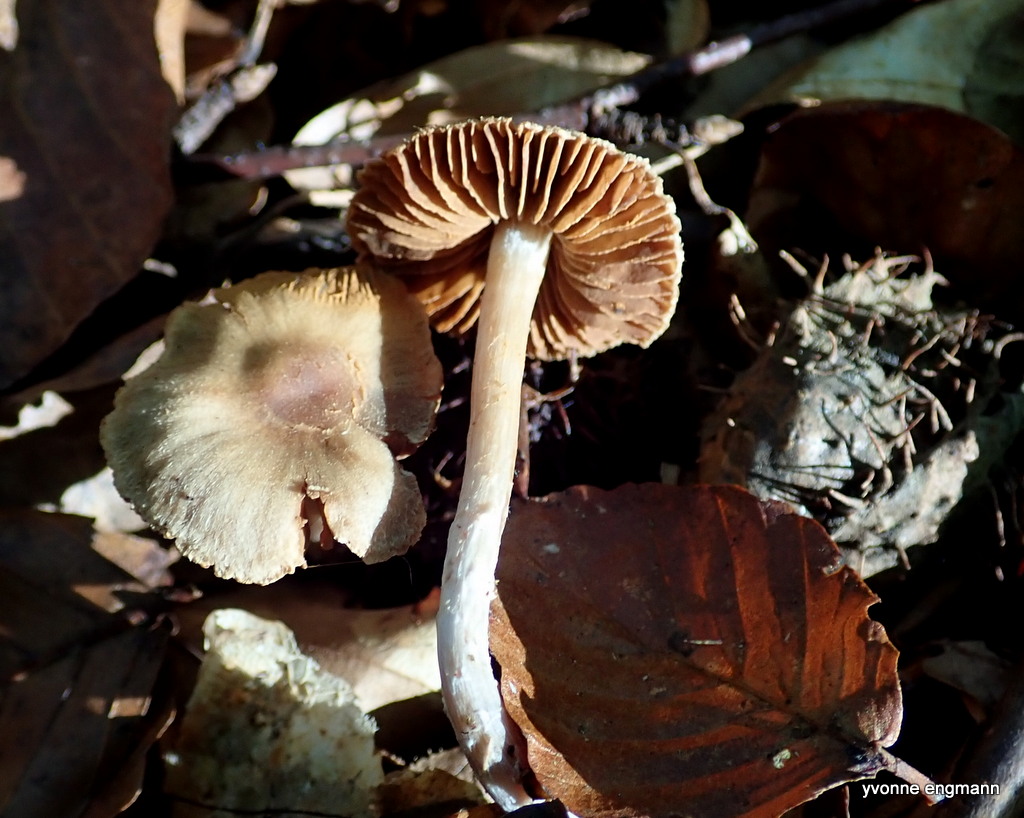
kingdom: Fungi
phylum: Basidiomycota
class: Agaricomycetes
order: Agaricales
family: Cortinariaceae
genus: Cortinarius
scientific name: Cortinarius
